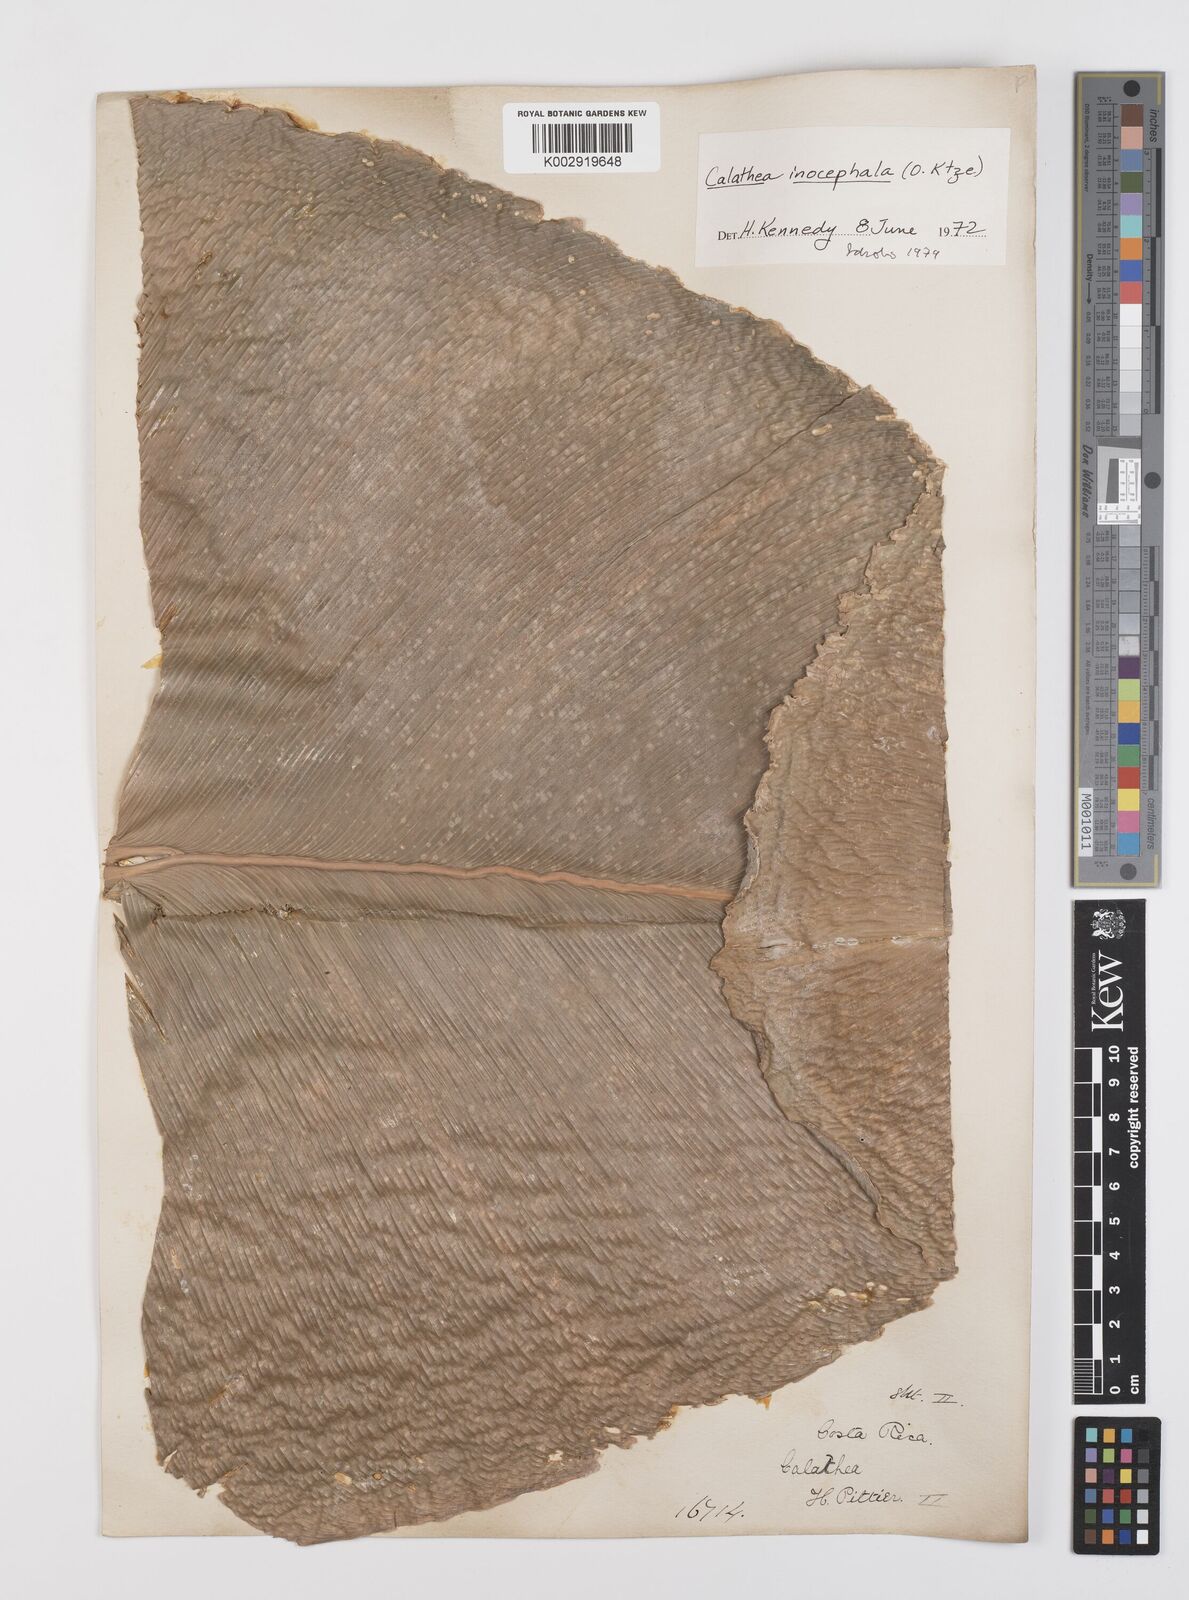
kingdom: Plantae
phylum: Tracheophyta
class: Liliopsida
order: Zingiberales
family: Marantaceae
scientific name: Marantaceae
